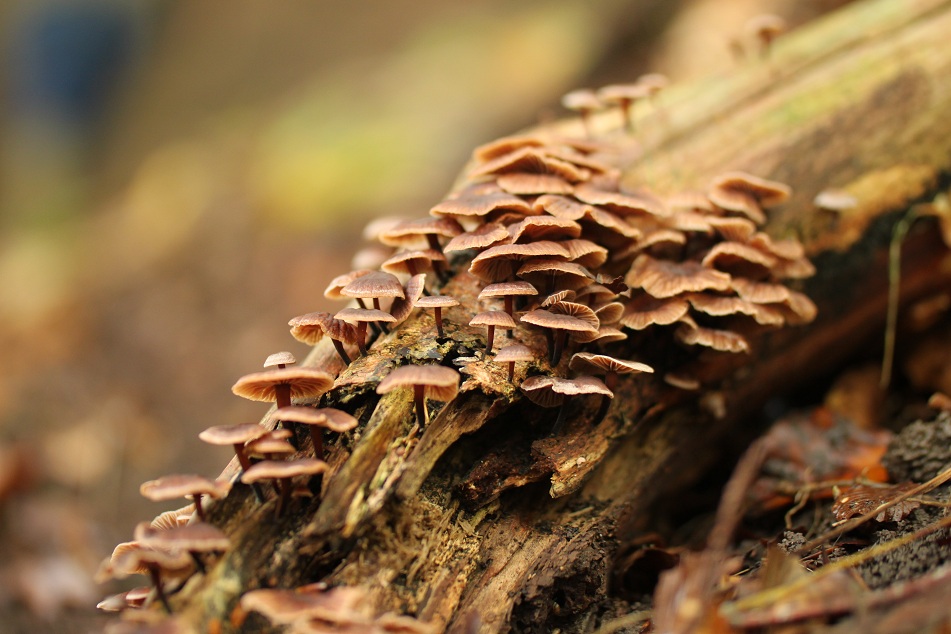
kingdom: Fungi
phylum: Basidiomycota
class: Agaricomycetes
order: Agaricales
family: Omphalotaceae
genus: Gymnopus
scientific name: Gymnopus foetidus
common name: stinkende fladhat
